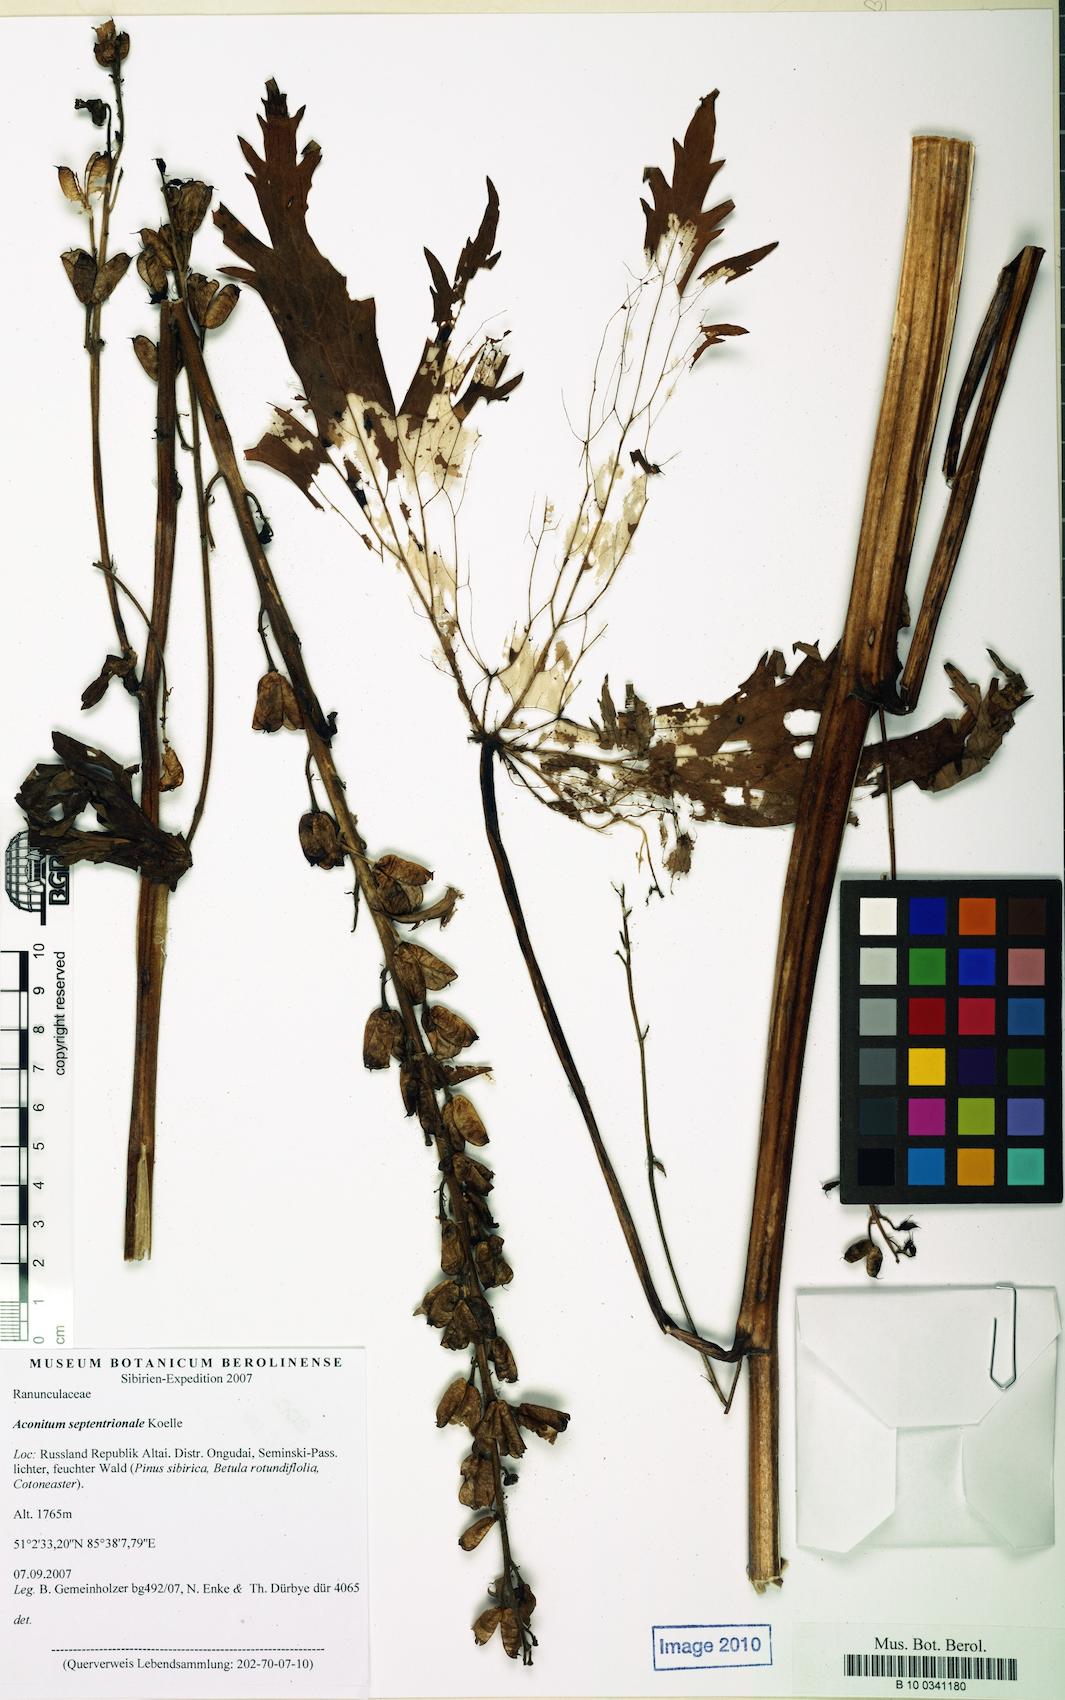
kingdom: Plantae
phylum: Tracheophyta
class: Magnoliopsida
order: Ranunculales
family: Ranunculaceae
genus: Aconitum
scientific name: Aconitum septentrionale
